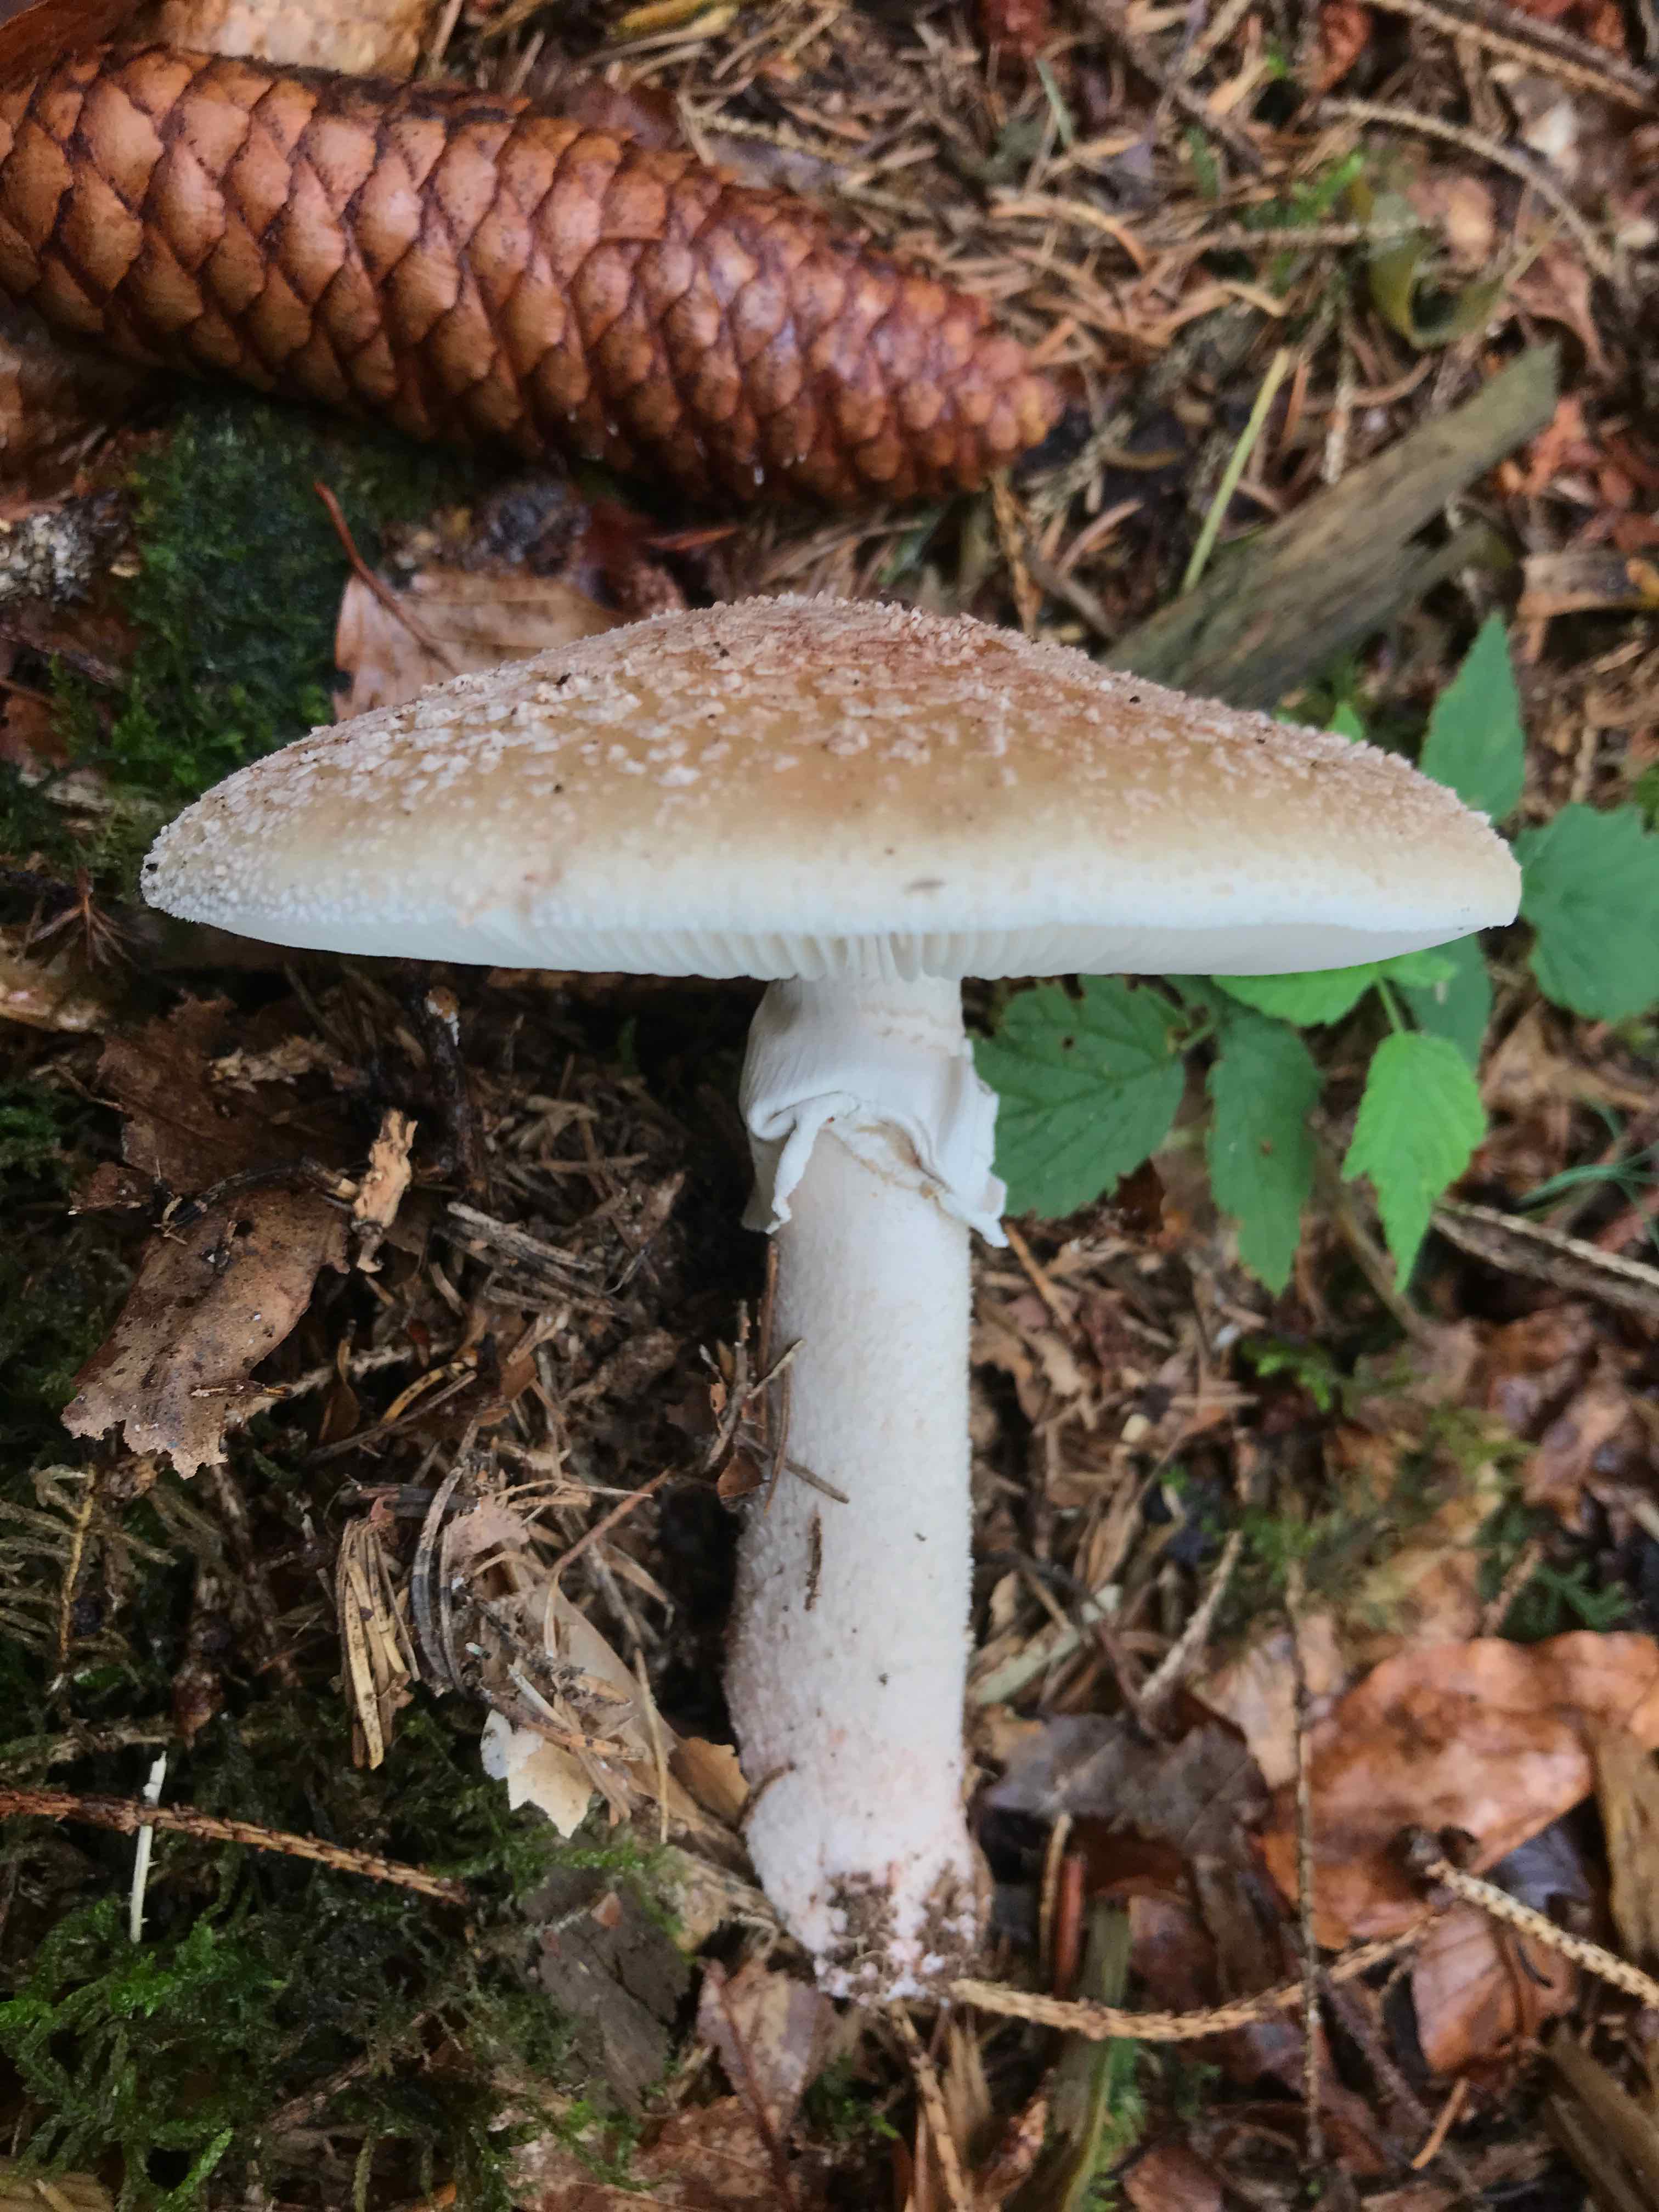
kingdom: Fungi
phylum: Basidiomycota
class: Agaricomycetes
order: Agaricales
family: Amanitaceae
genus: Amanita
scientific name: Amanita rubescens
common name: rødmende fluesvamp
